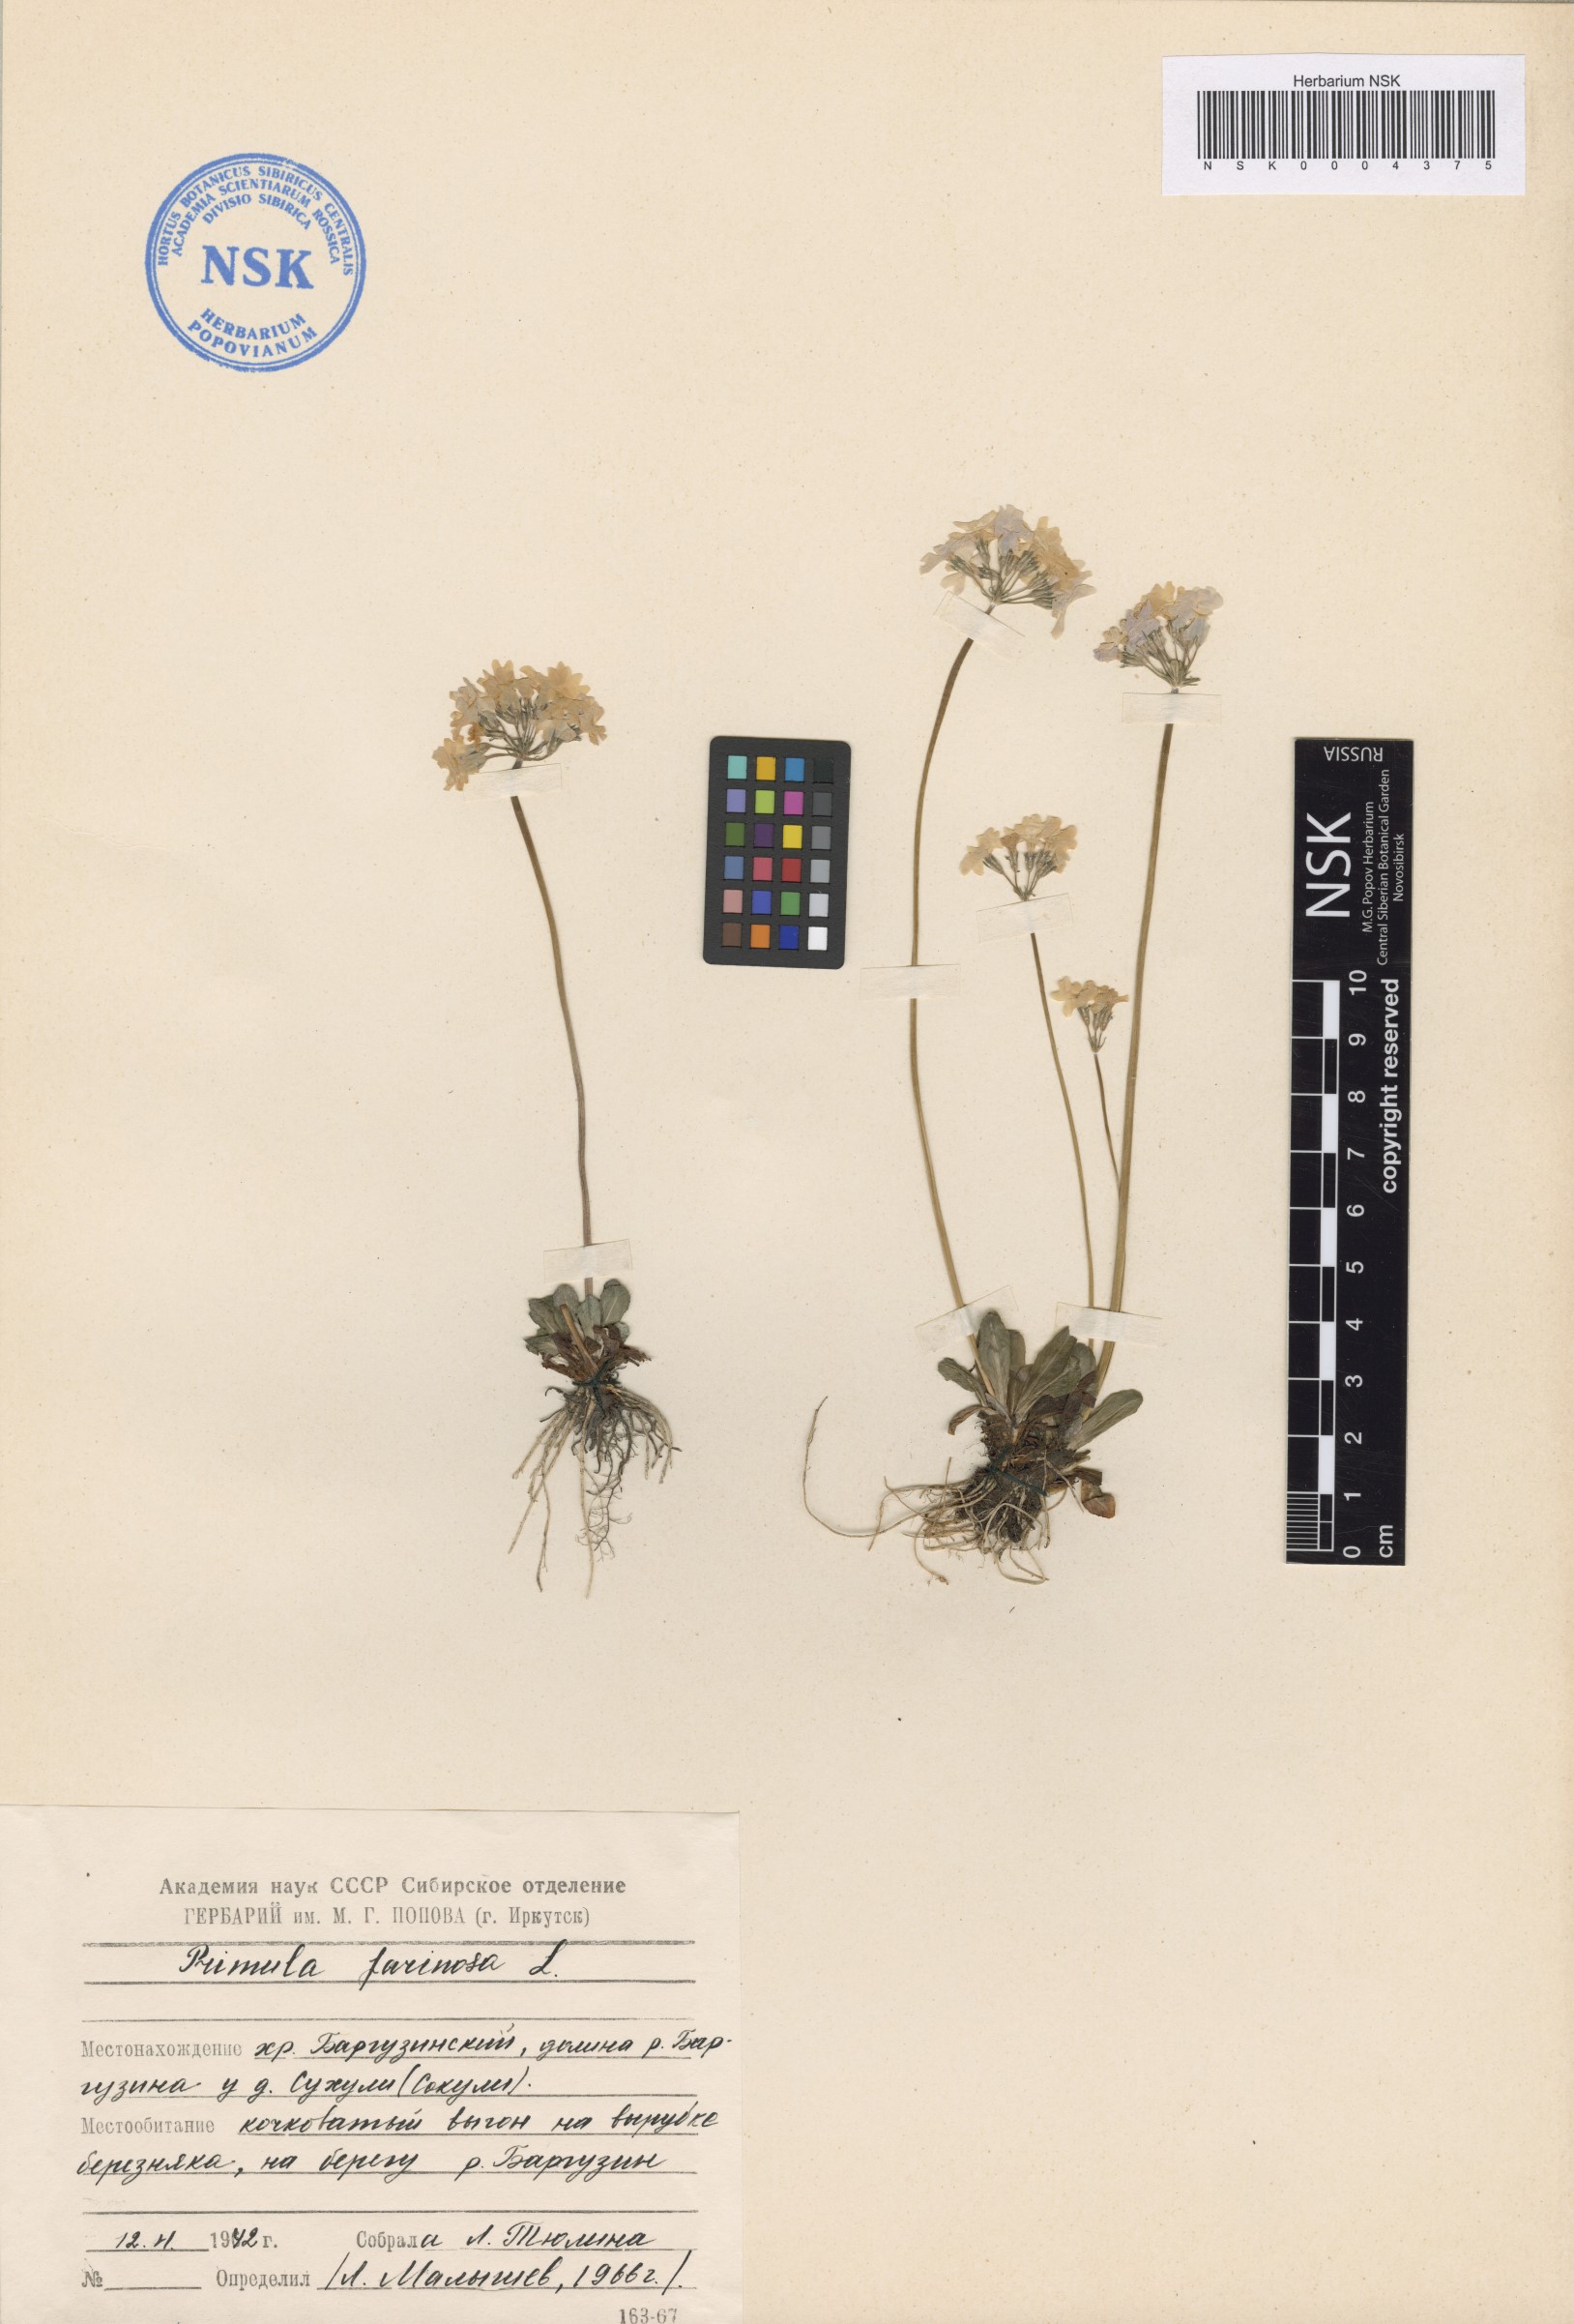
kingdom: Plantae
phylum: Tracheophyta
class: Magnoliopsida
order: Ericales
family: Primulaceae
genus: Primula
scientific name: Primula farinosa
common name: Bird's-eye primrose
